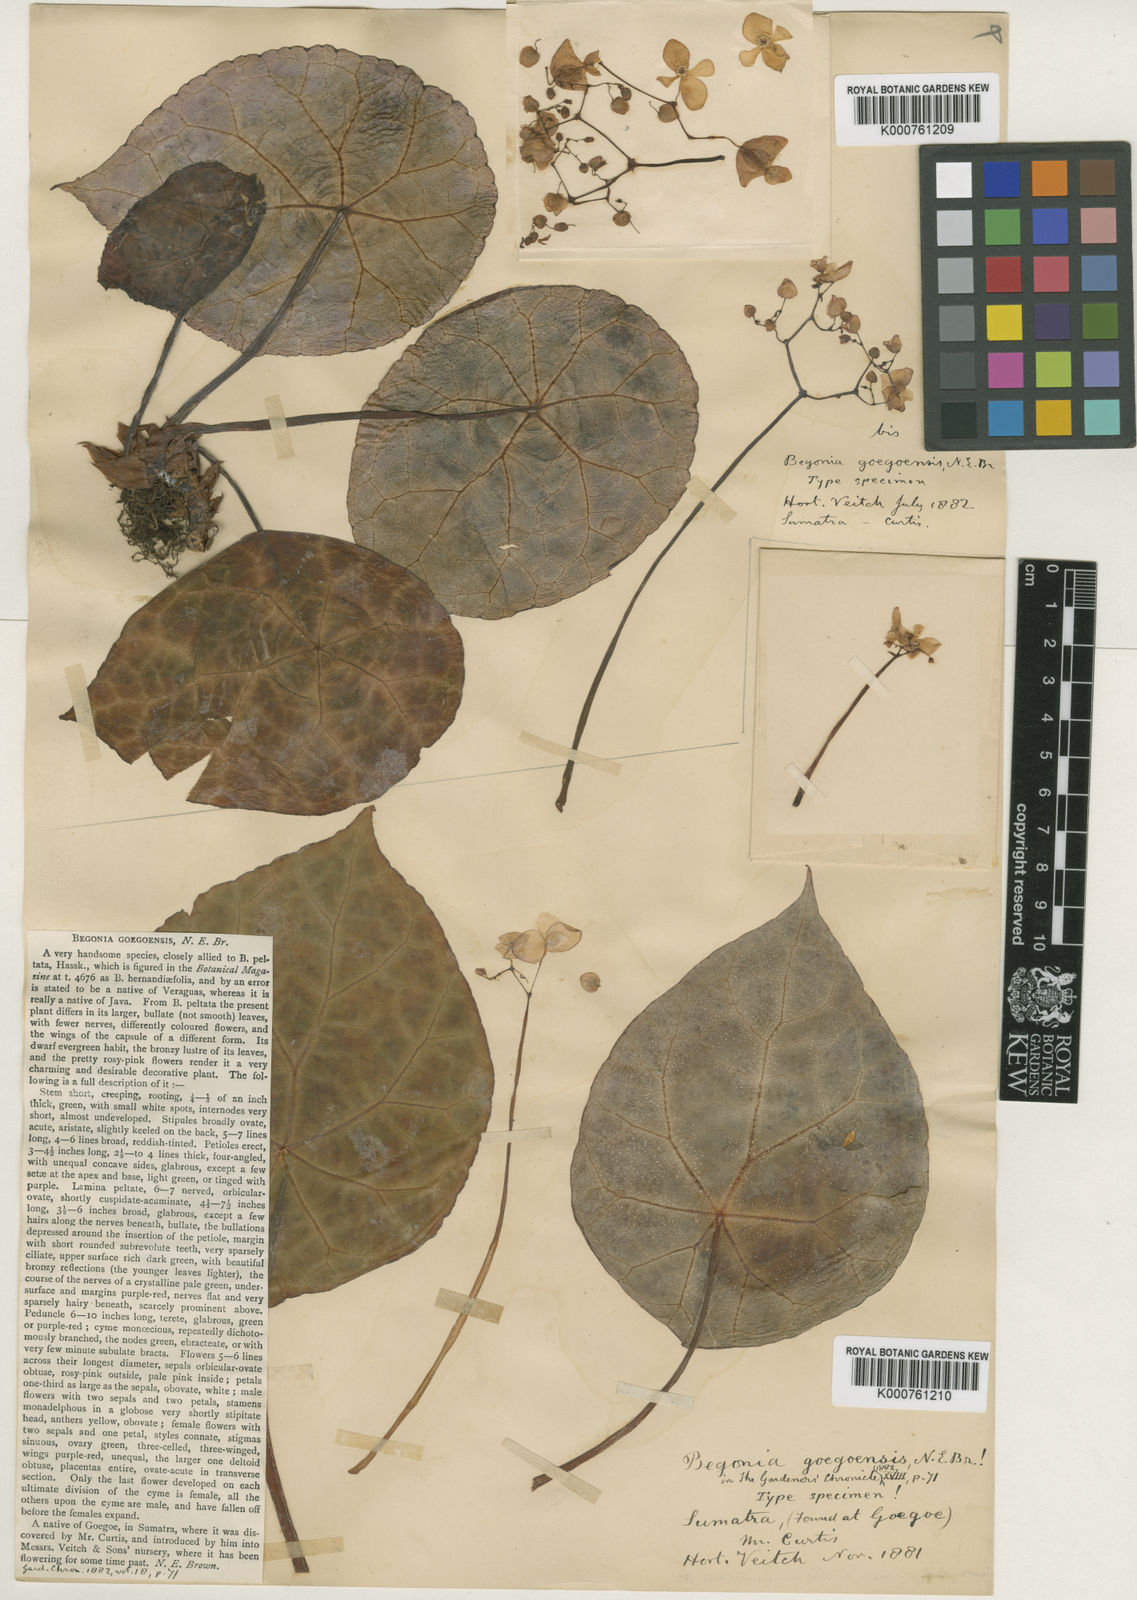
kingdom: Plantae
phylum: Tracheophyta
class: Magnoliopsida
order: Cucurbitales
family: Begoniaceae
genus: Begonia
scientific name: Begonia goegoensis
